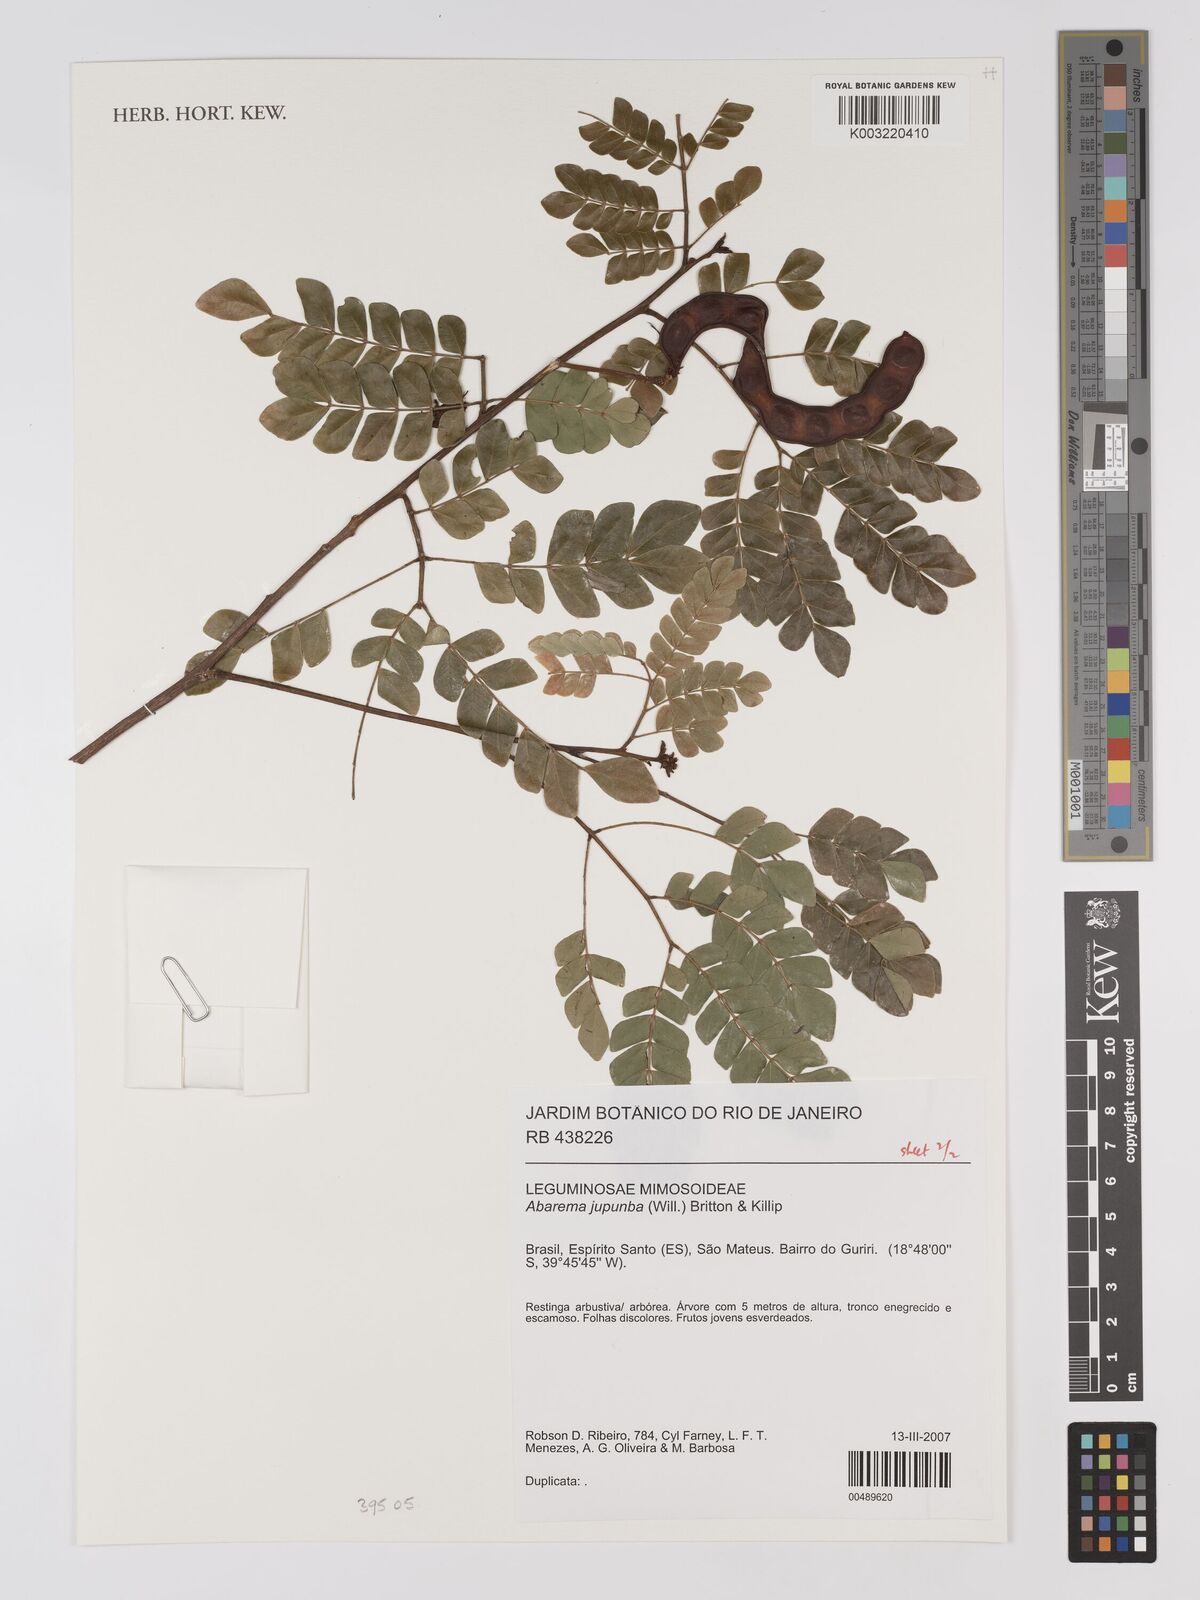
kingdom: Plantae
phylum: Tracheophyta
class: Magnoliopsida
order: Fabales
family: Fabaceae
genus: Jupunba
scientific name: Jupunba trapezifolia
